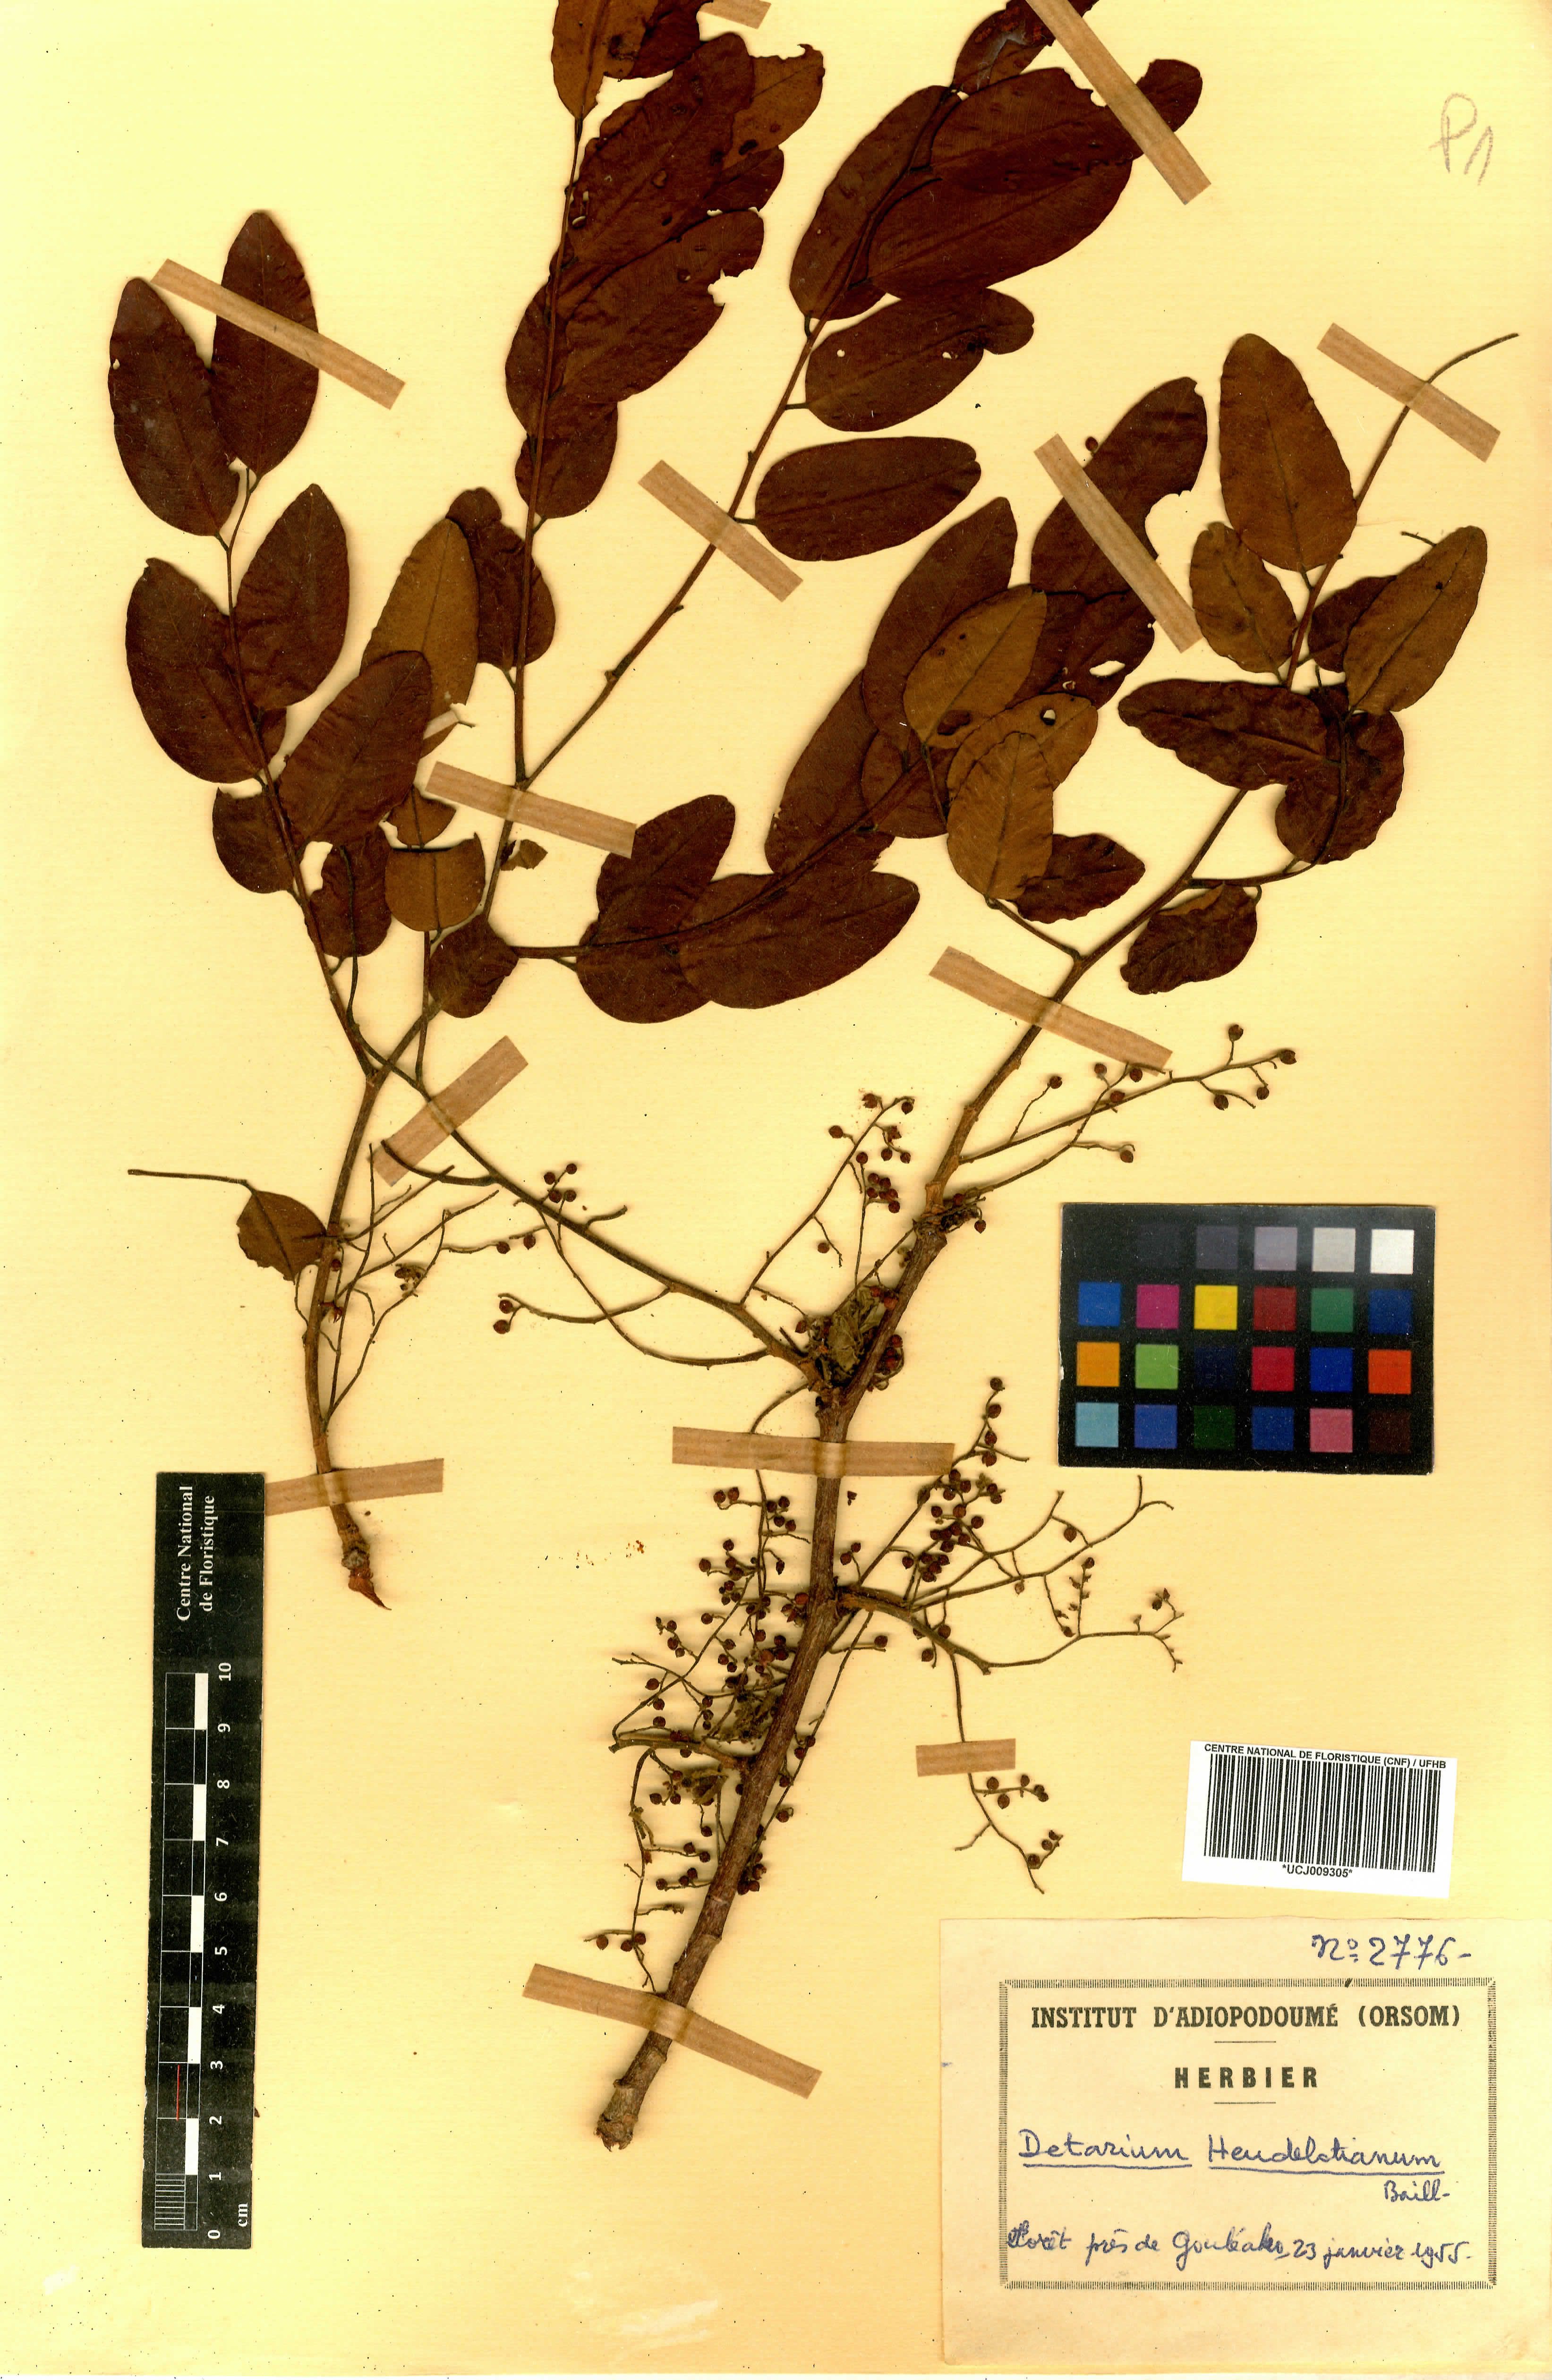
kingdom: Plantae
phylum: Tracheophyta
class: Magnoliopsida
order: Fabales
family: Fabaceae
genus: Detarium
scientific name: Detarium senegalense
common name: Dattocktree
